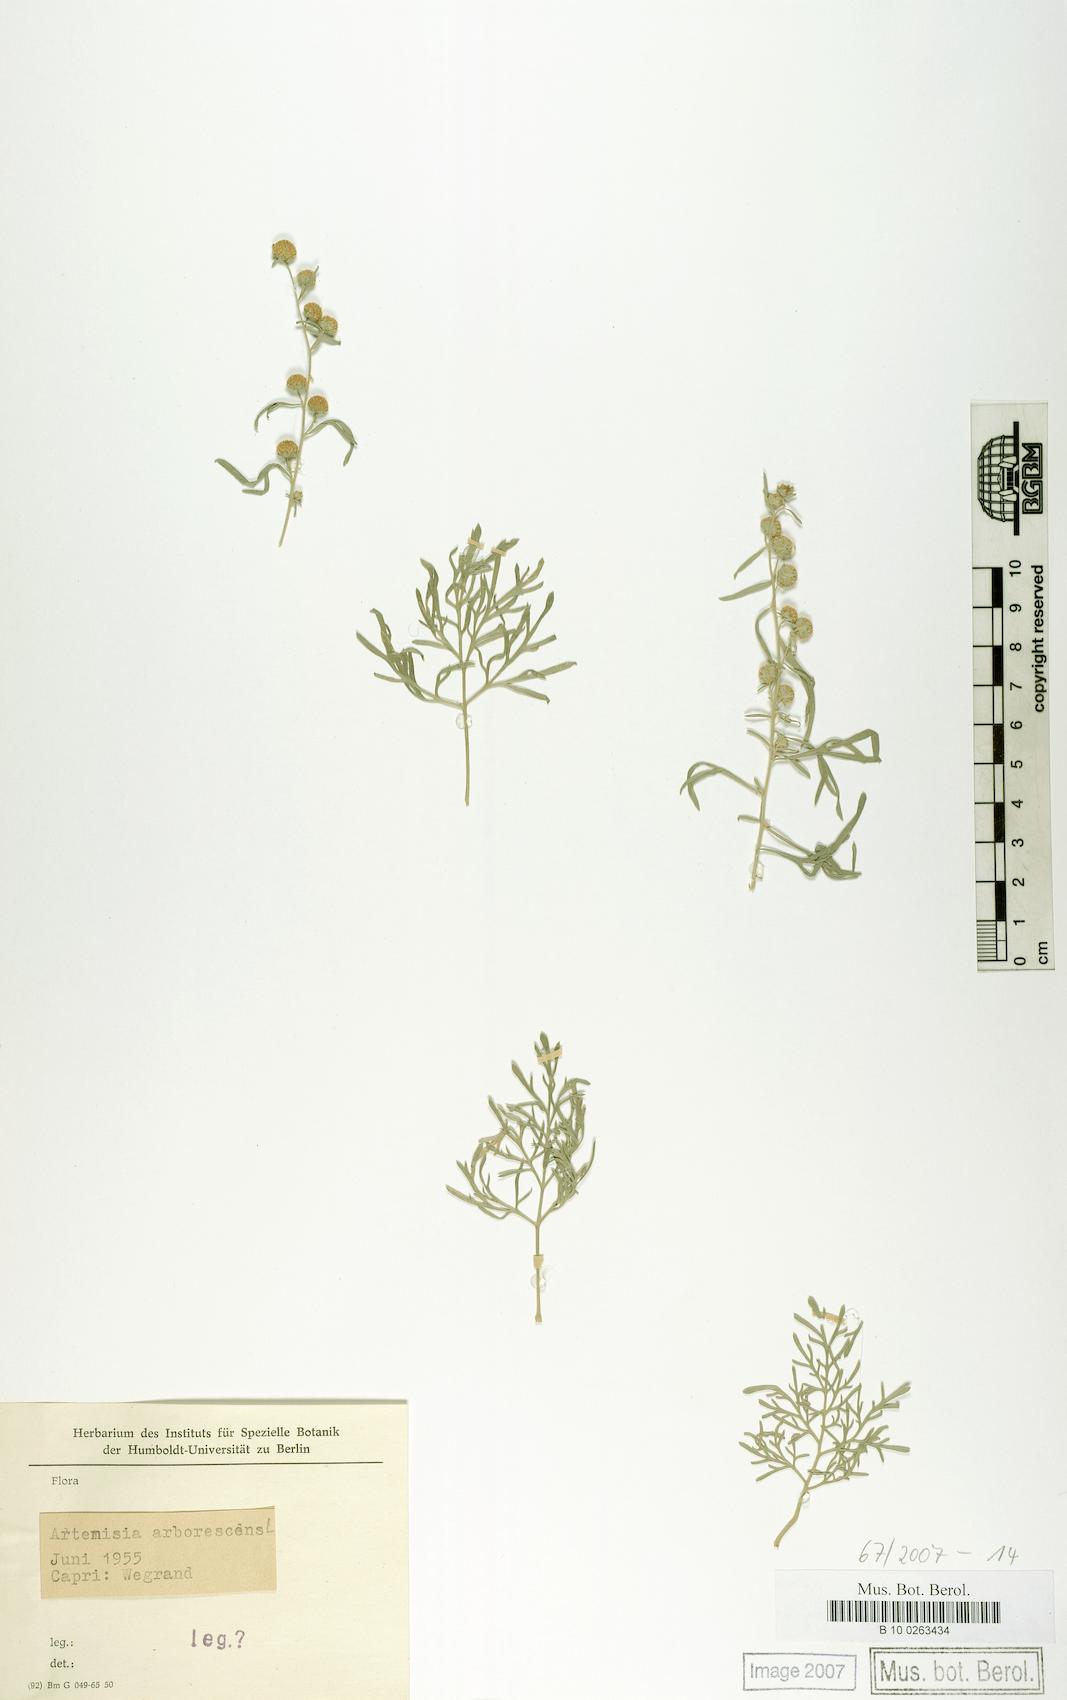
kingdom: Plantae
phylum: Tracheophyta
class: Magnoliopsida
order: Asterales
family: Asteraceae
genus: Artemisia
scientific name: Artemisia arborescens
